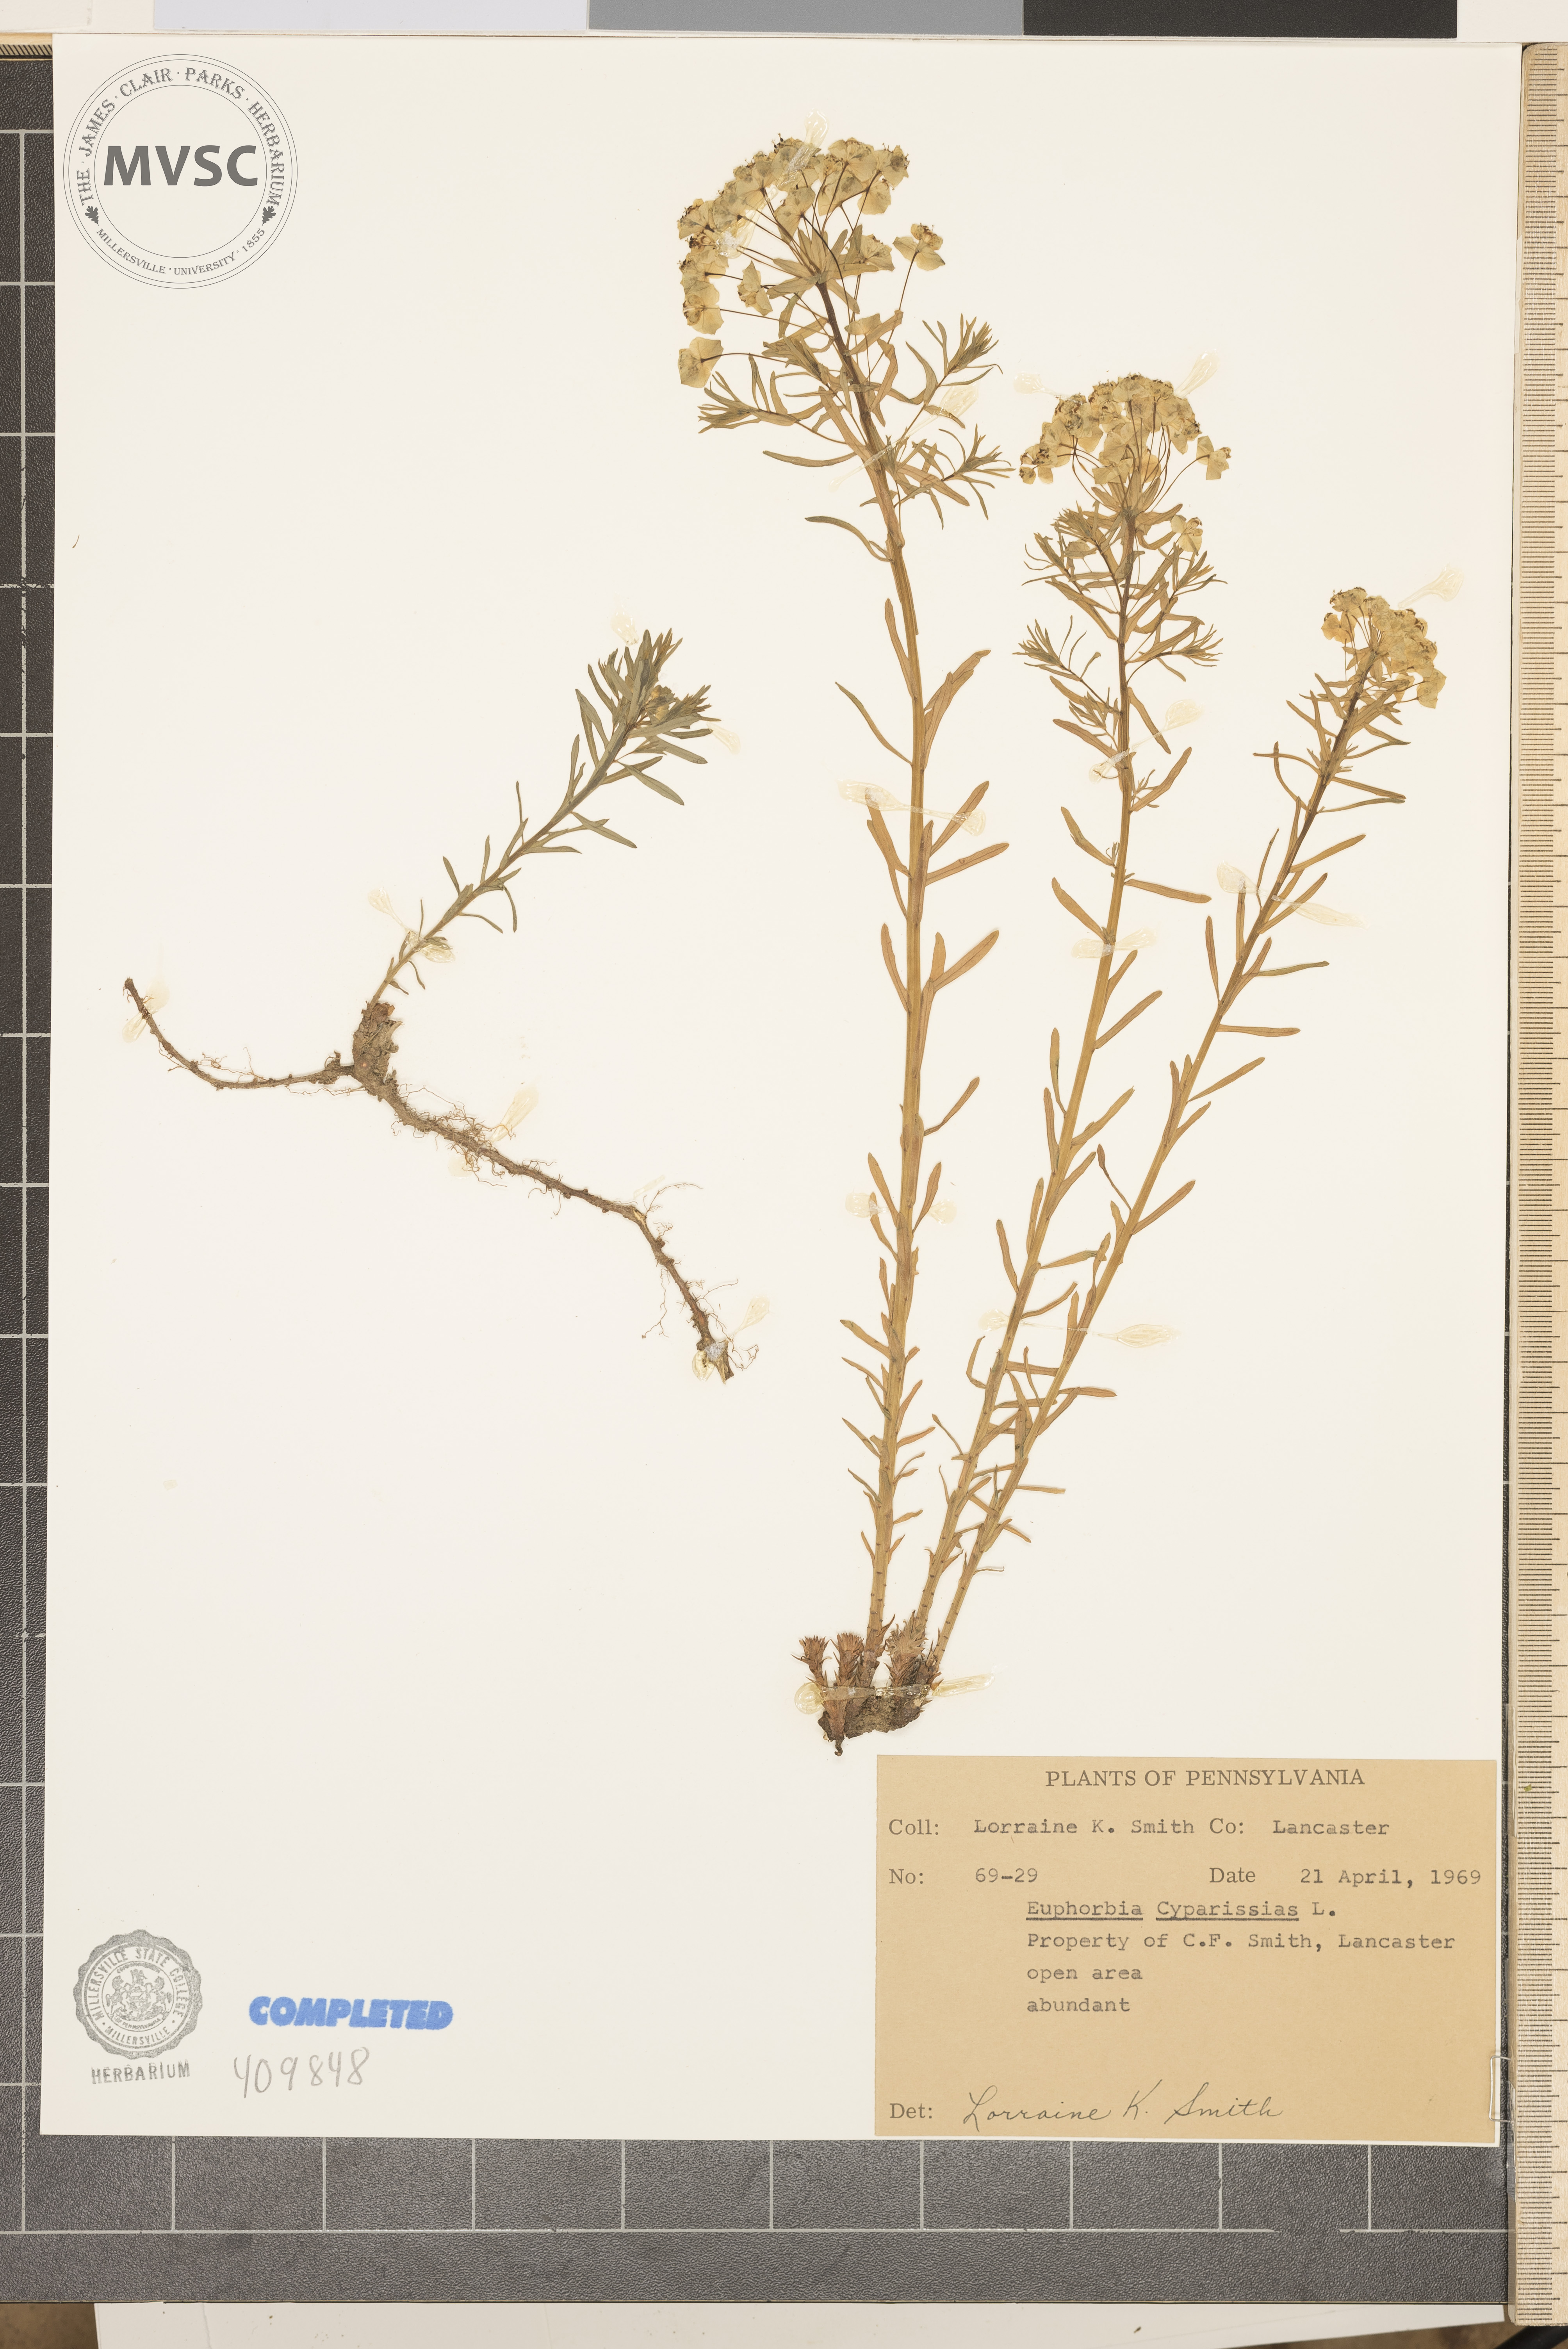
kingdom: Plantae
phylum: Tracheophyta
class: Magnoliopsida
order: Malpighiales
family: Euphorbiaceae
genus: Euphorbia
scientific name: Euphorbia cyparissias
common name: Cypress Spurge
